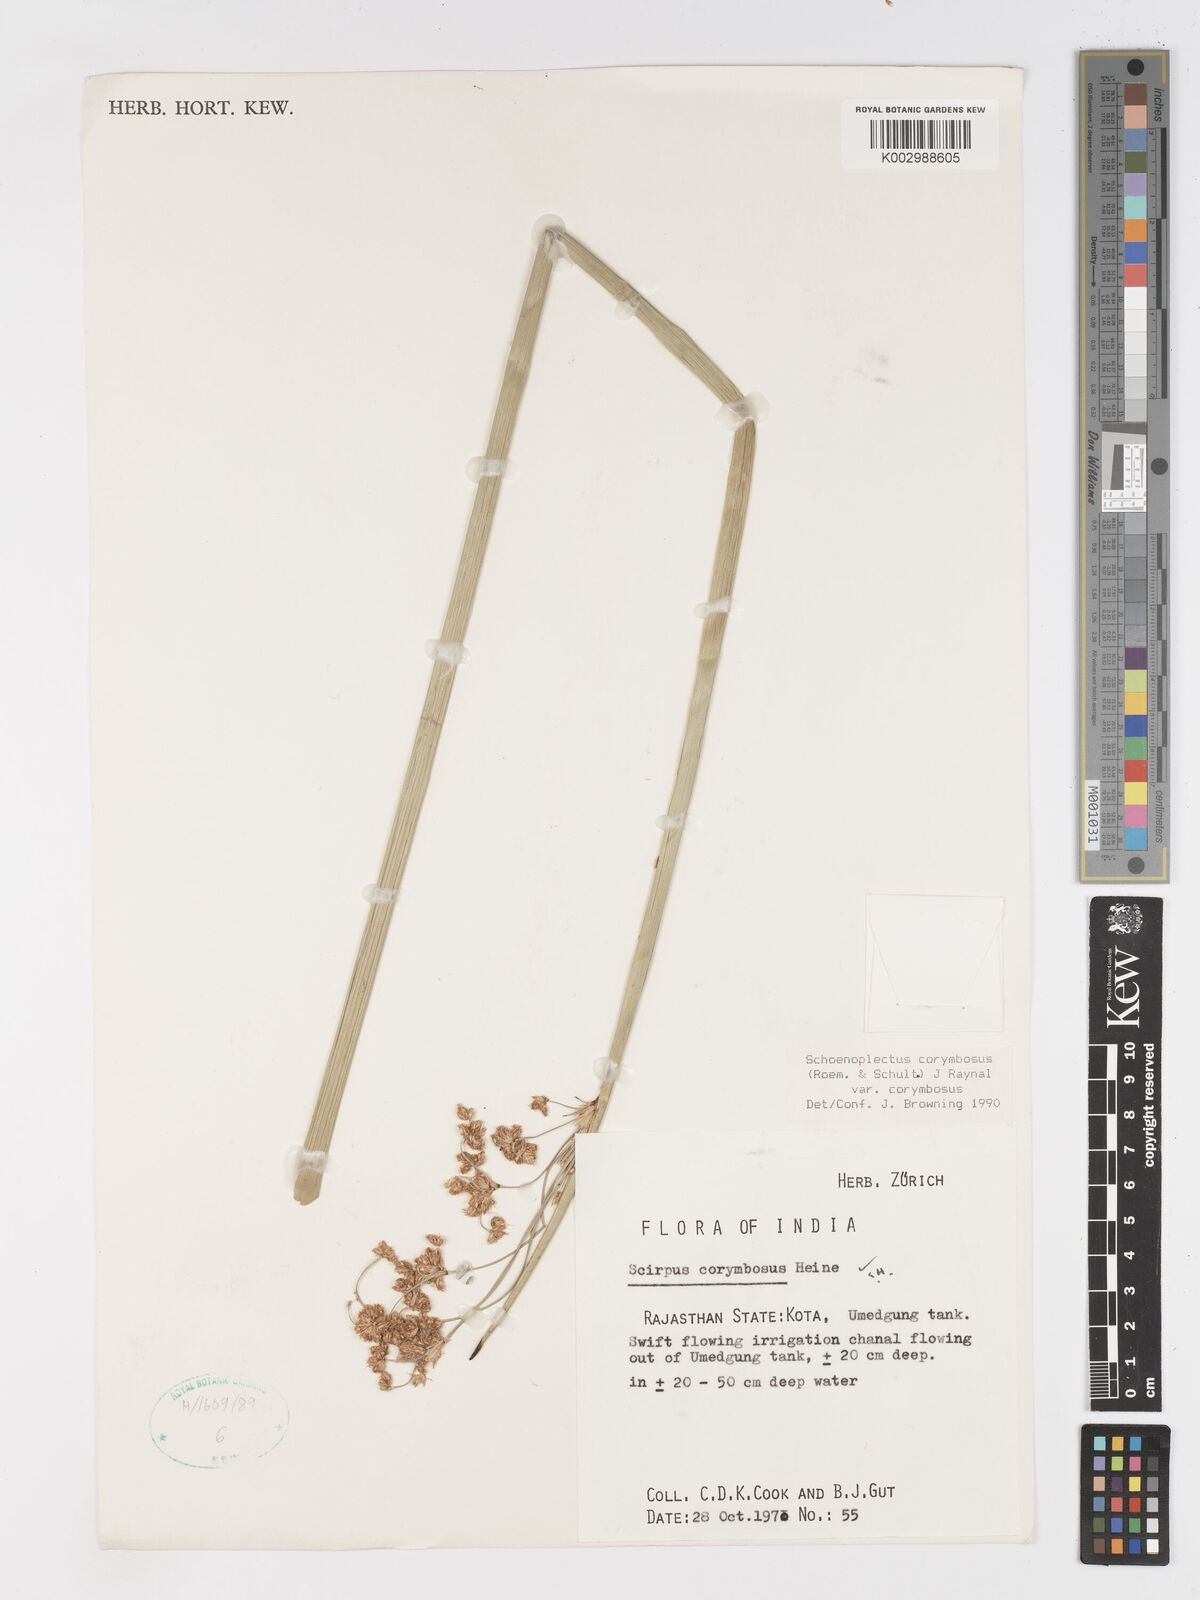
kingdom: Plantae
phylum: Tracheophyta
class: Liliopsida
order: Poales
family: Cyperaceae
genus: Schoenoplectiella
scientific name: Schoenoplectiella corymbosa
